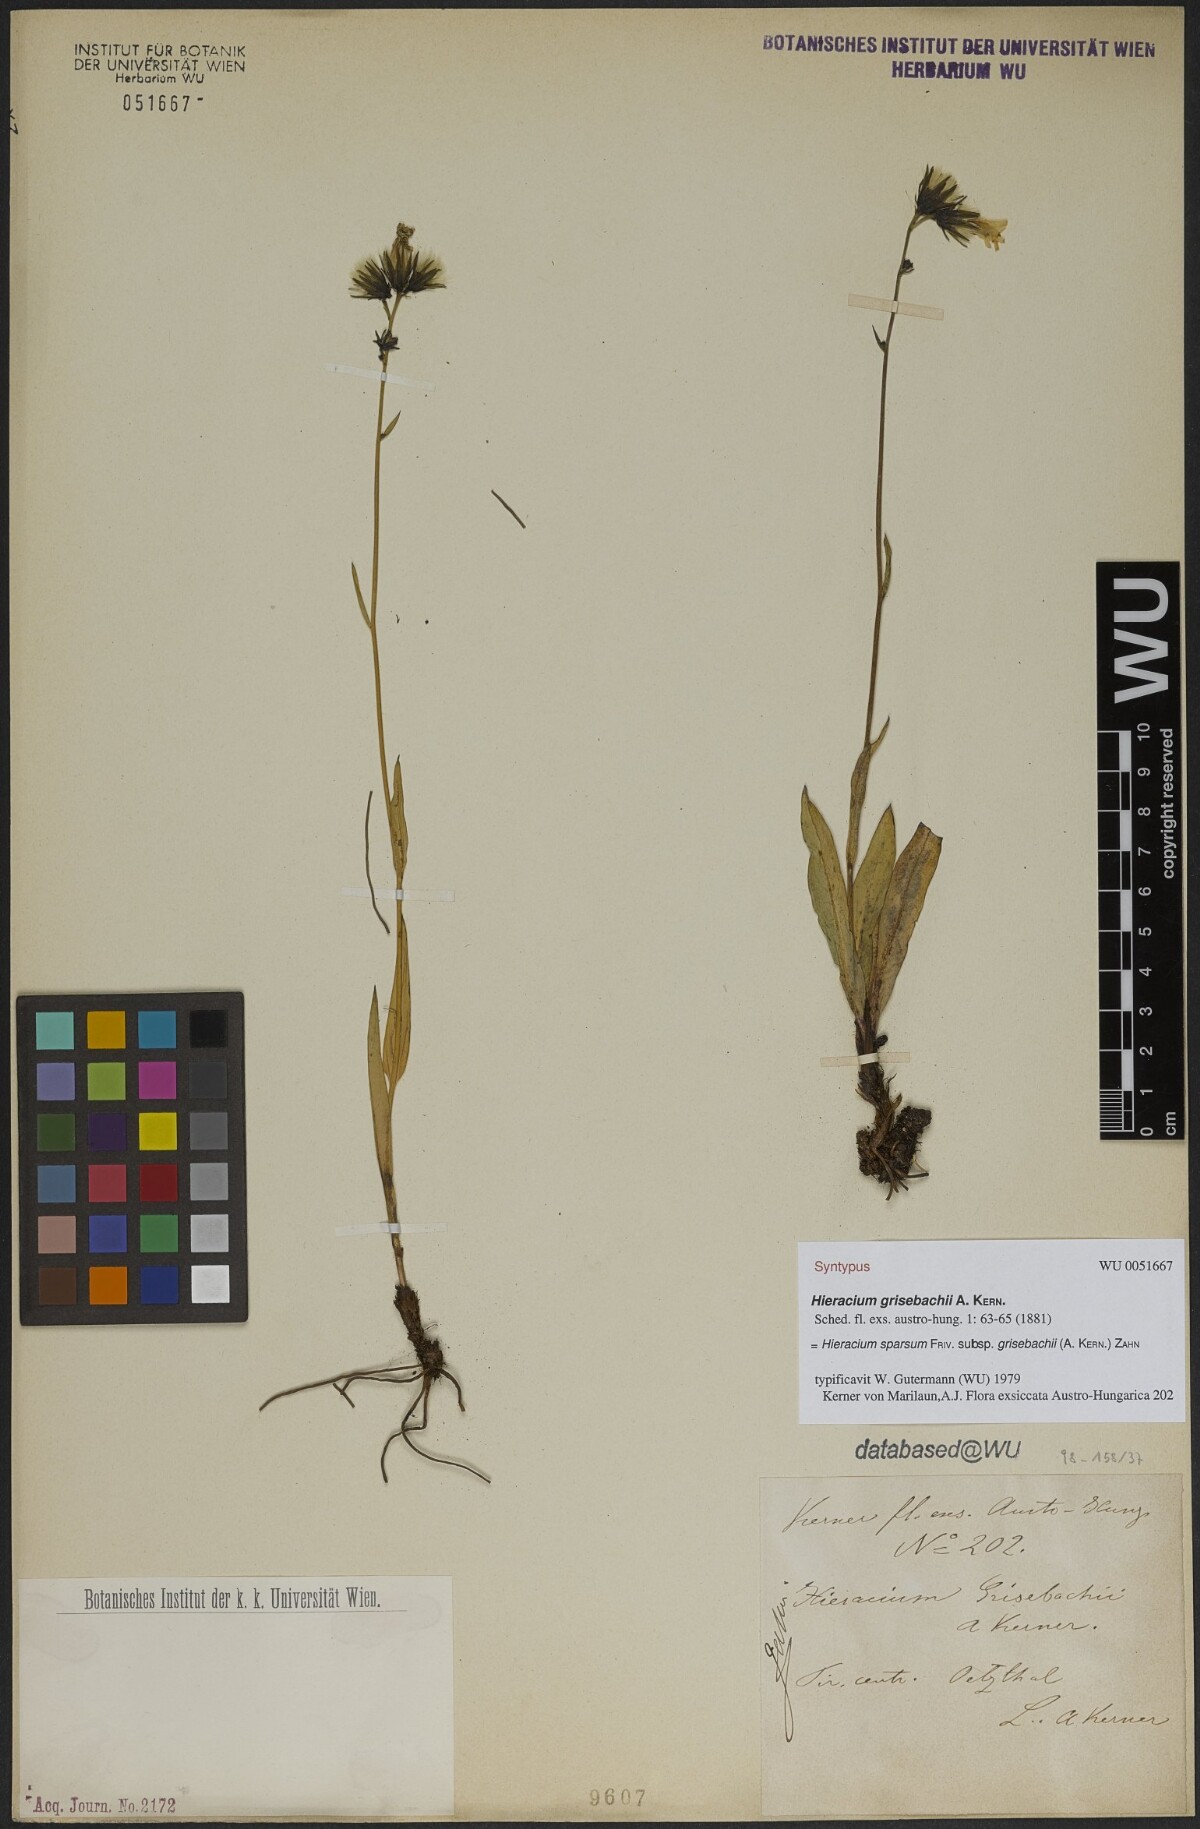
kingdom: Plantae
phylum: Tracheophyta
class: Magnoliopsida
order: Asterales
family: Asteraceae
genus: Hieracium
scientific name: Hieracium sparsum
